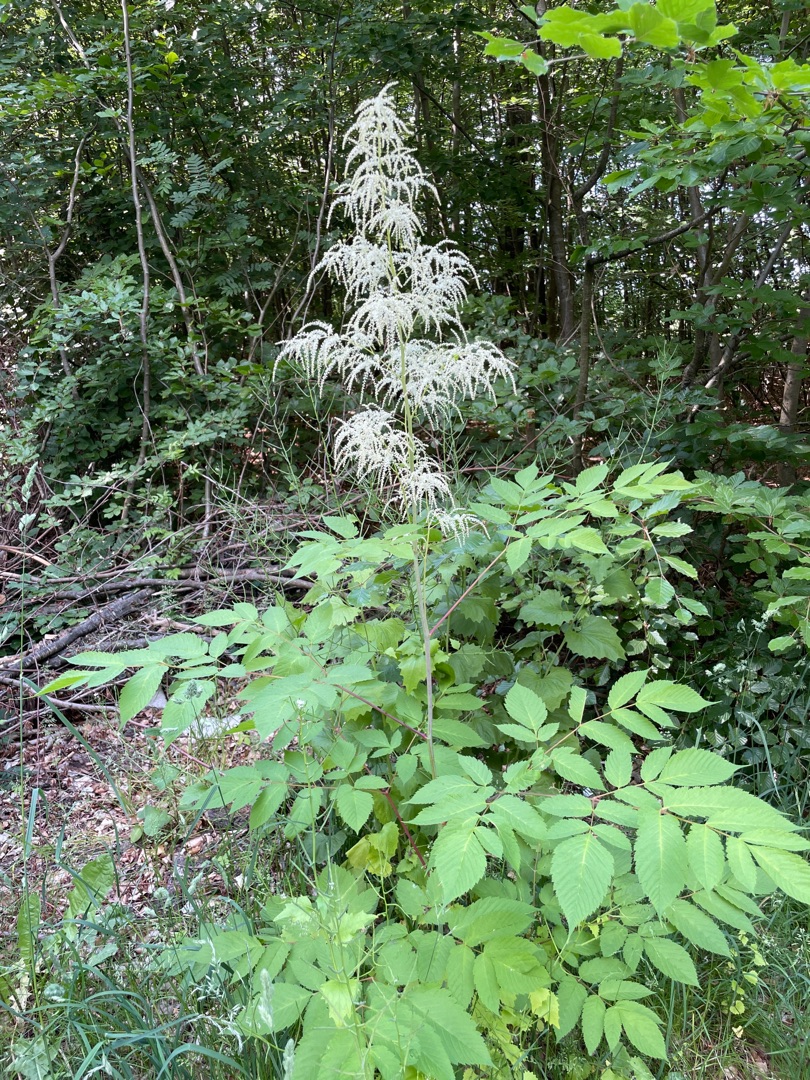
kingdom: Plantae
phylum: Tracheophyta
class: Magnoliopsida
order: Rosales
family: Rosaceae
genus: Aruncus
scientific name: Aruncus dioicus
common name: Fjerbusk
